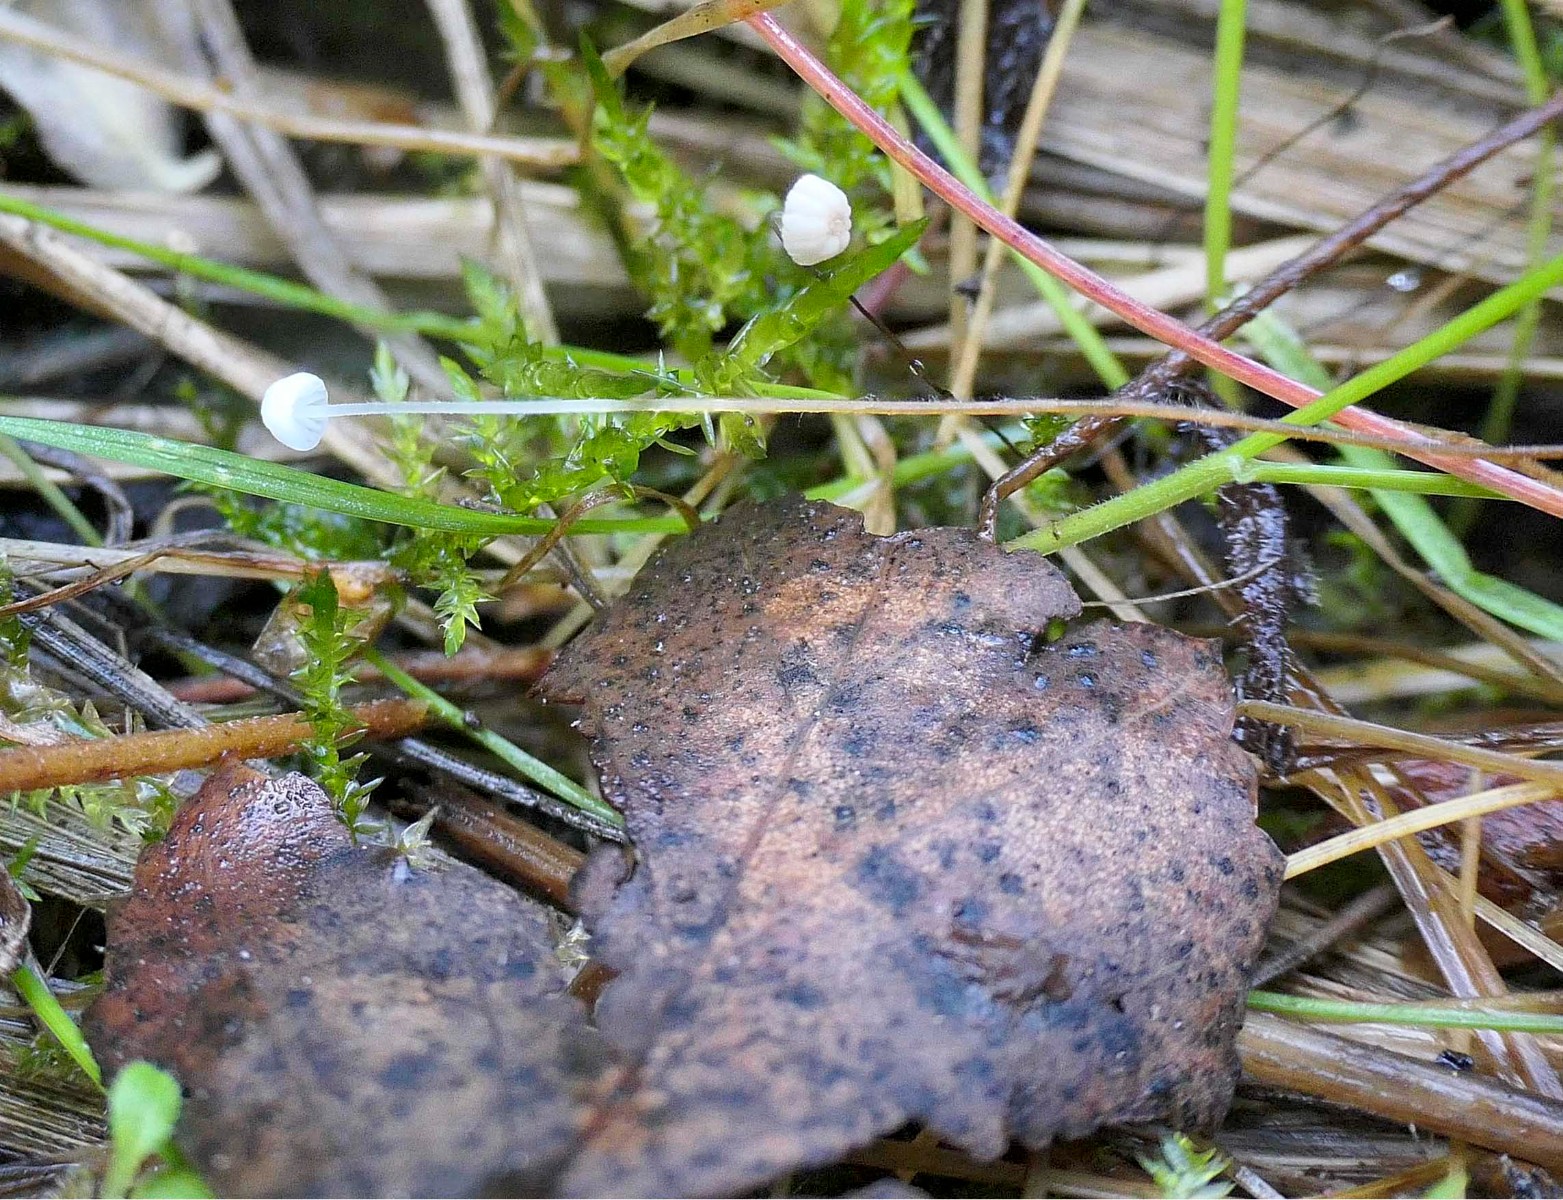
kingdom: Fungi
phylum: Basidiomycota
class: Agaricomycetes
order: Agaricales
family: Physalacriaceae
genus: Rhizomarasmius
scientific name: Rhizomarasmius setosus
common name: bøgeblads-bruskhat
